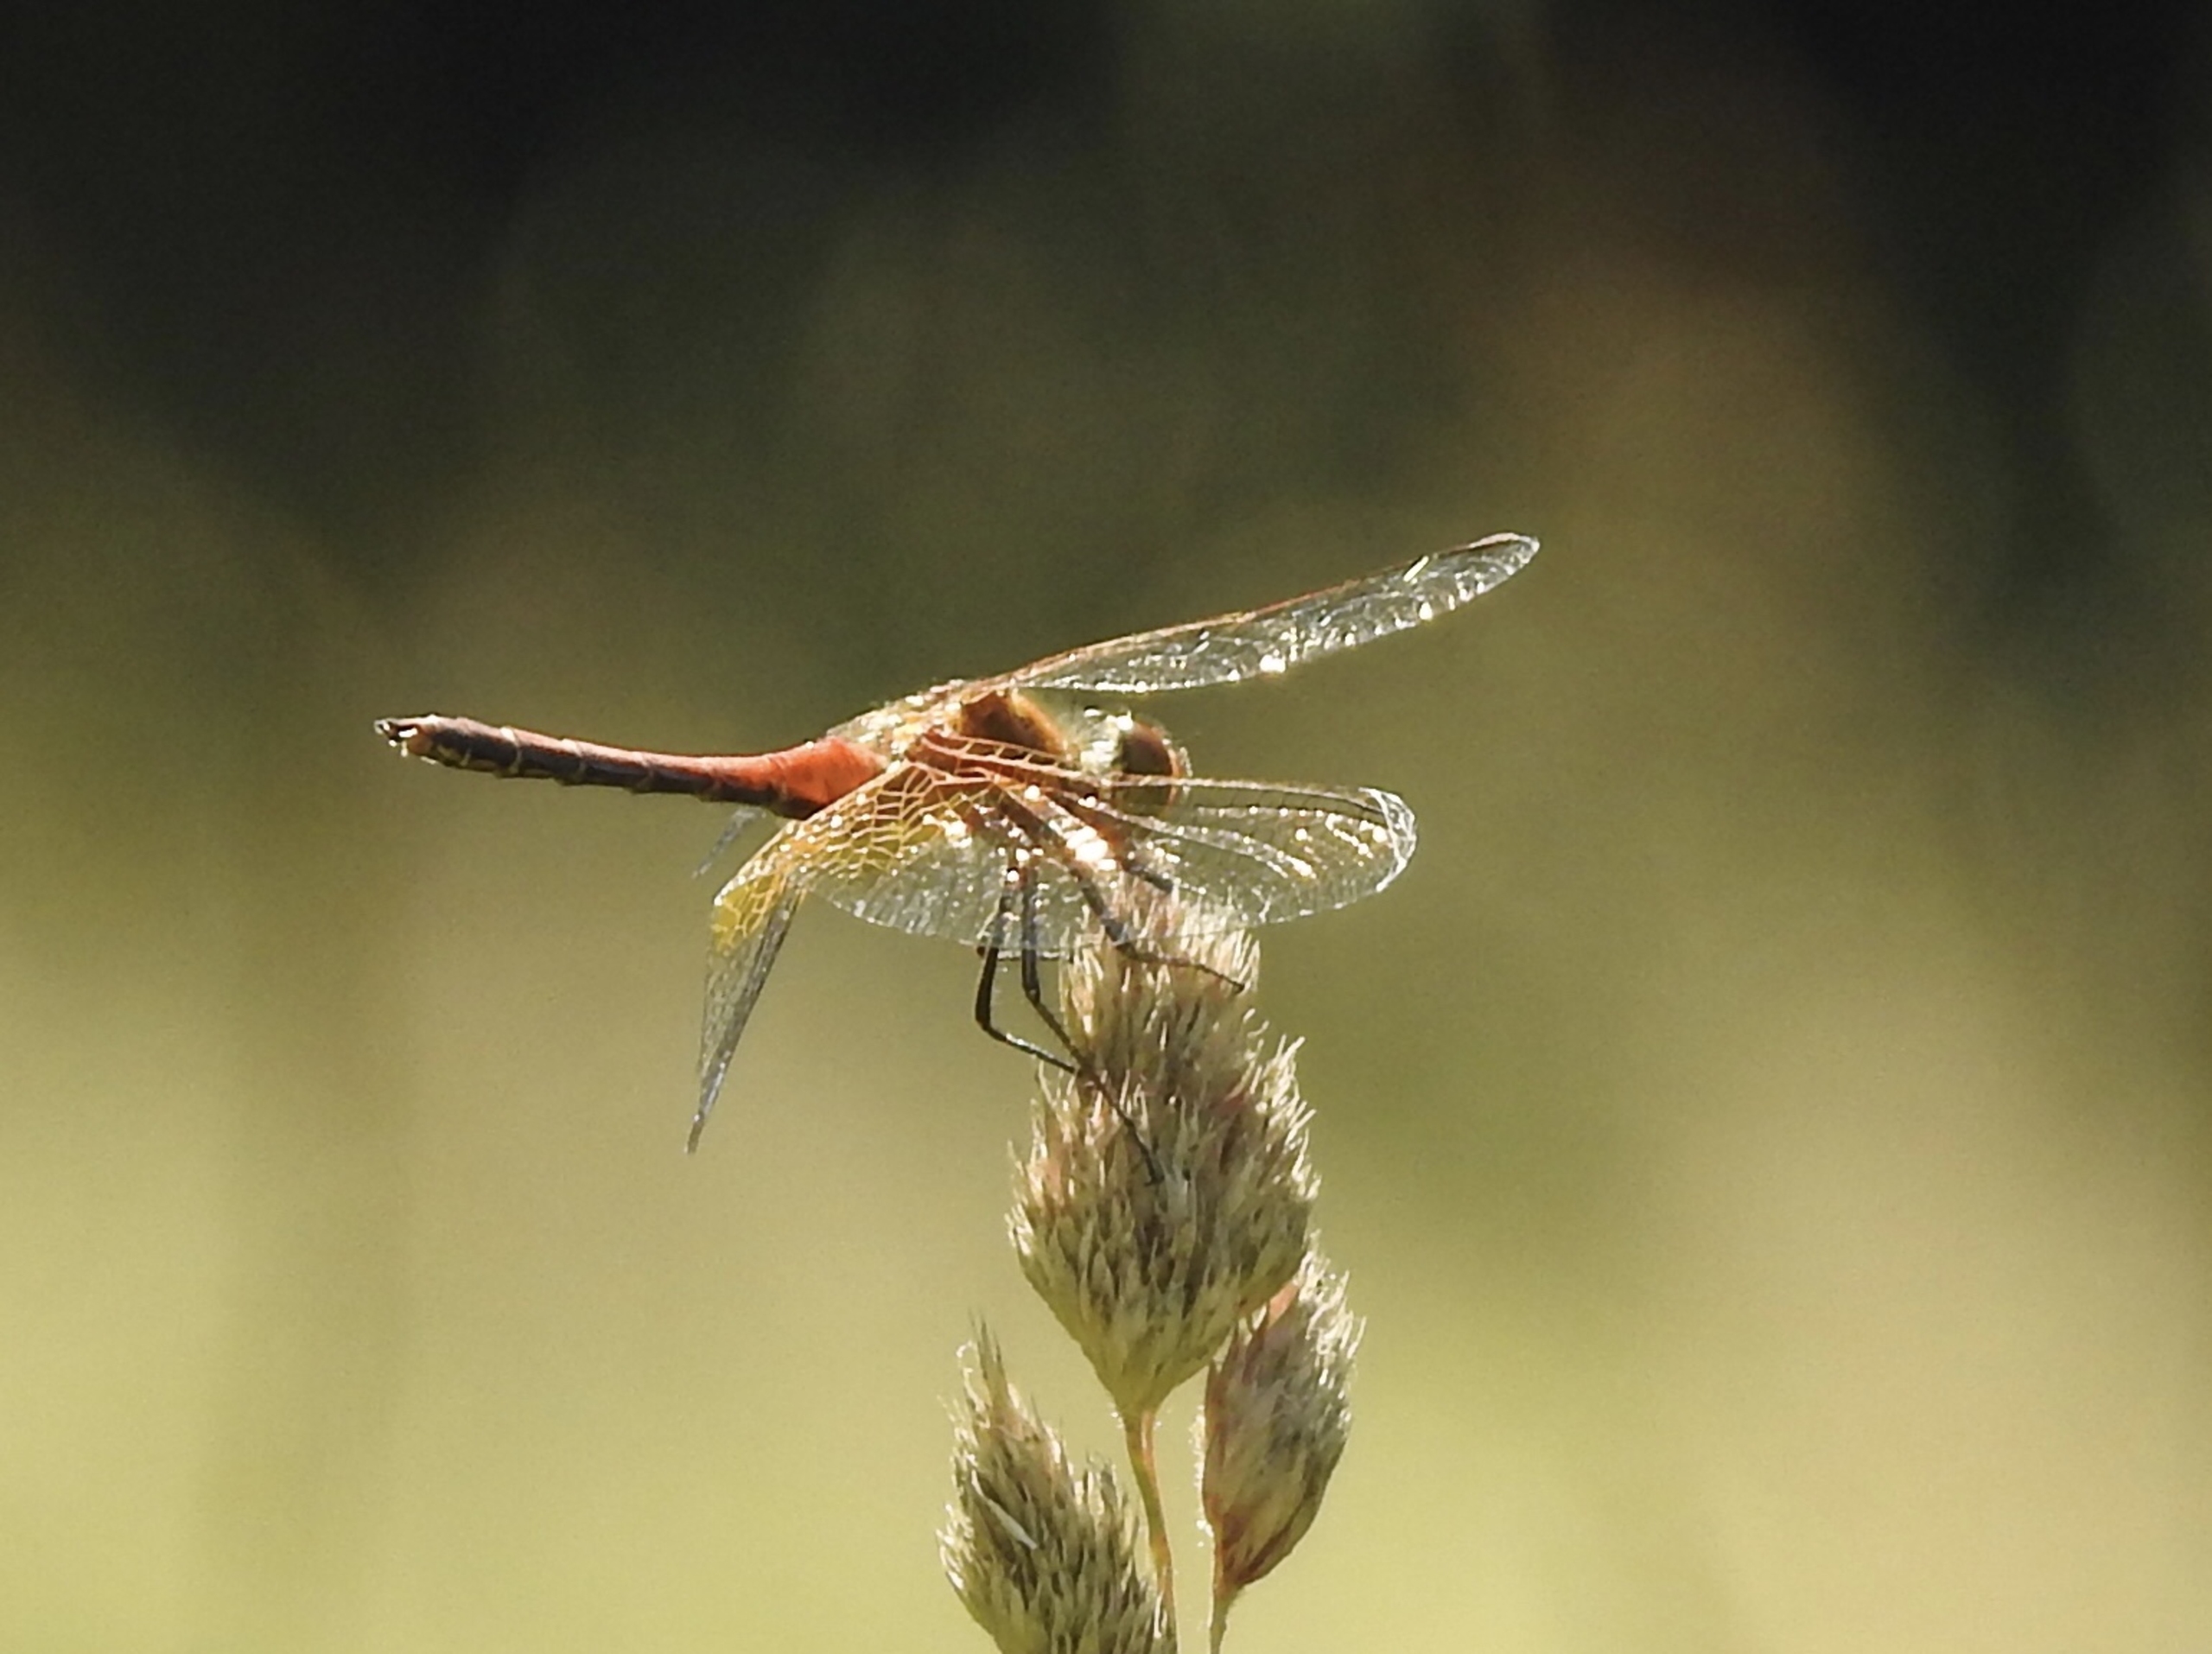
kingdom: Animalia
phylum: Arthropoda
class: Insecta
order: Odonata
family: Libellulidae
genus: Sympetrum
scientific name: Sympetrum flaveolum
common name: Gulvinget hedelibel
